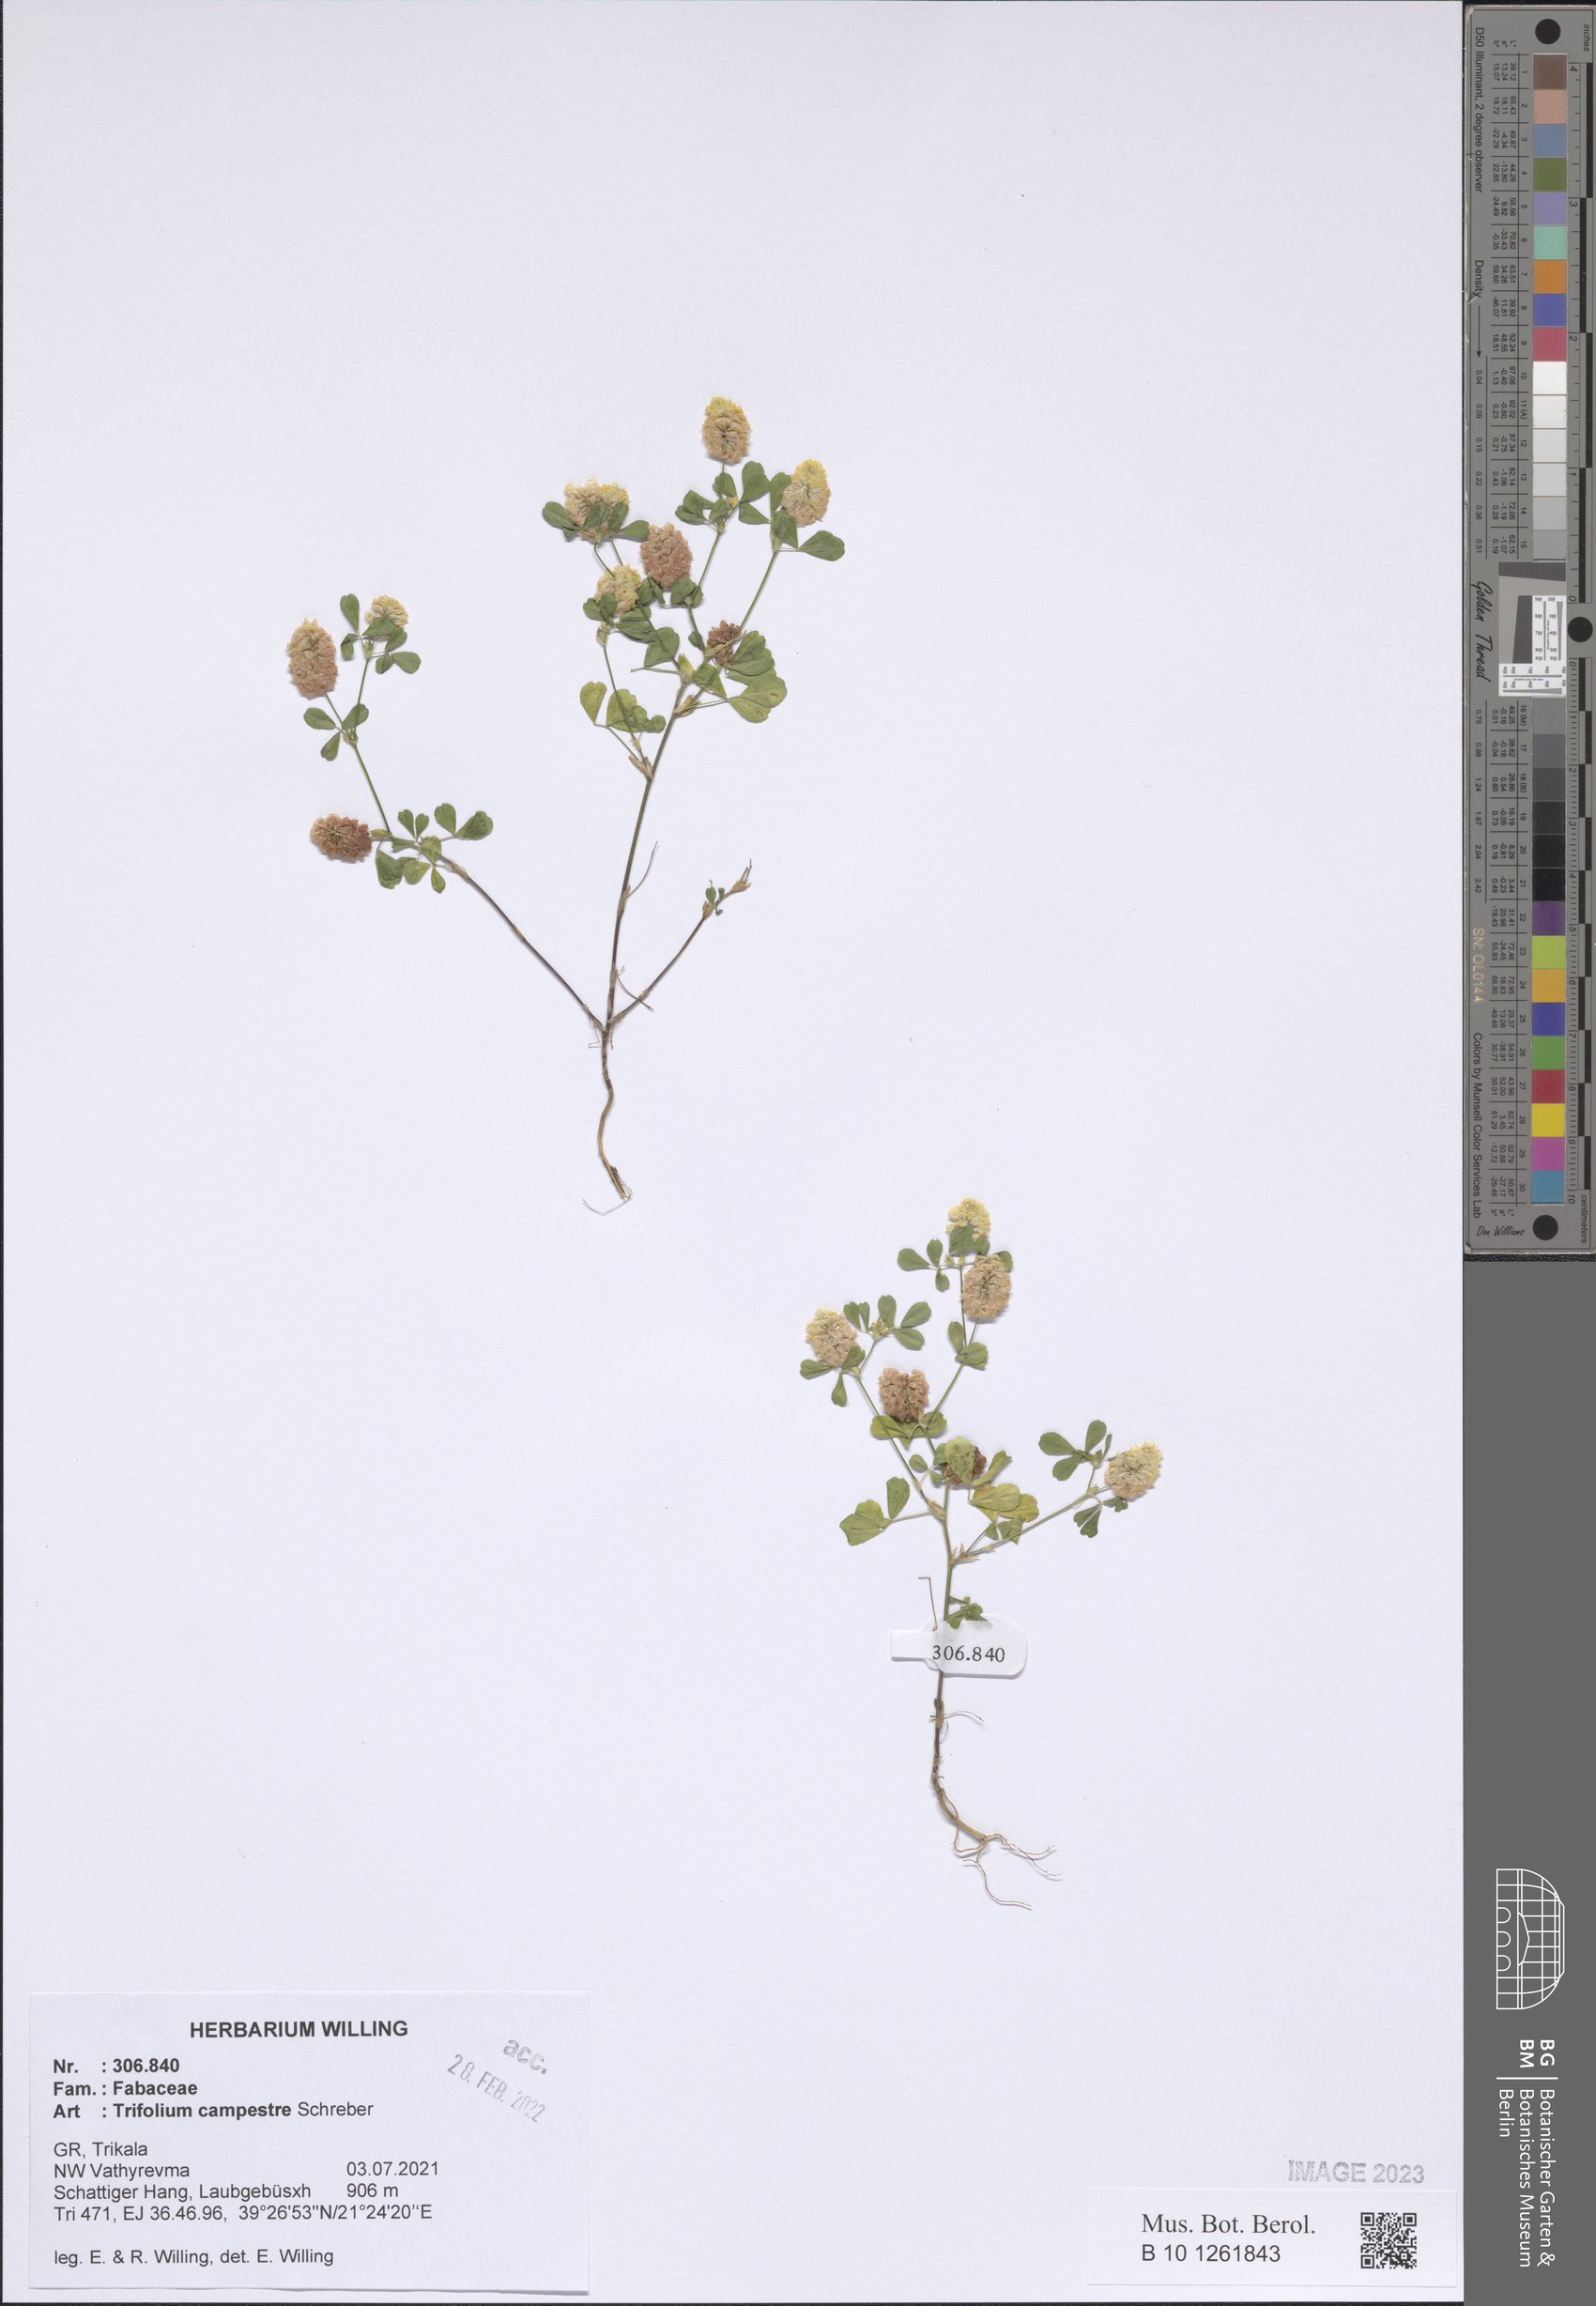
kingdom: Plantae
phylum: Tracheophyta
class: Magnoliopsida
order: Fabales
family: Fabaceae
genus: Trifolium
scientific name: Trifolium campestre
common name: Field clover
